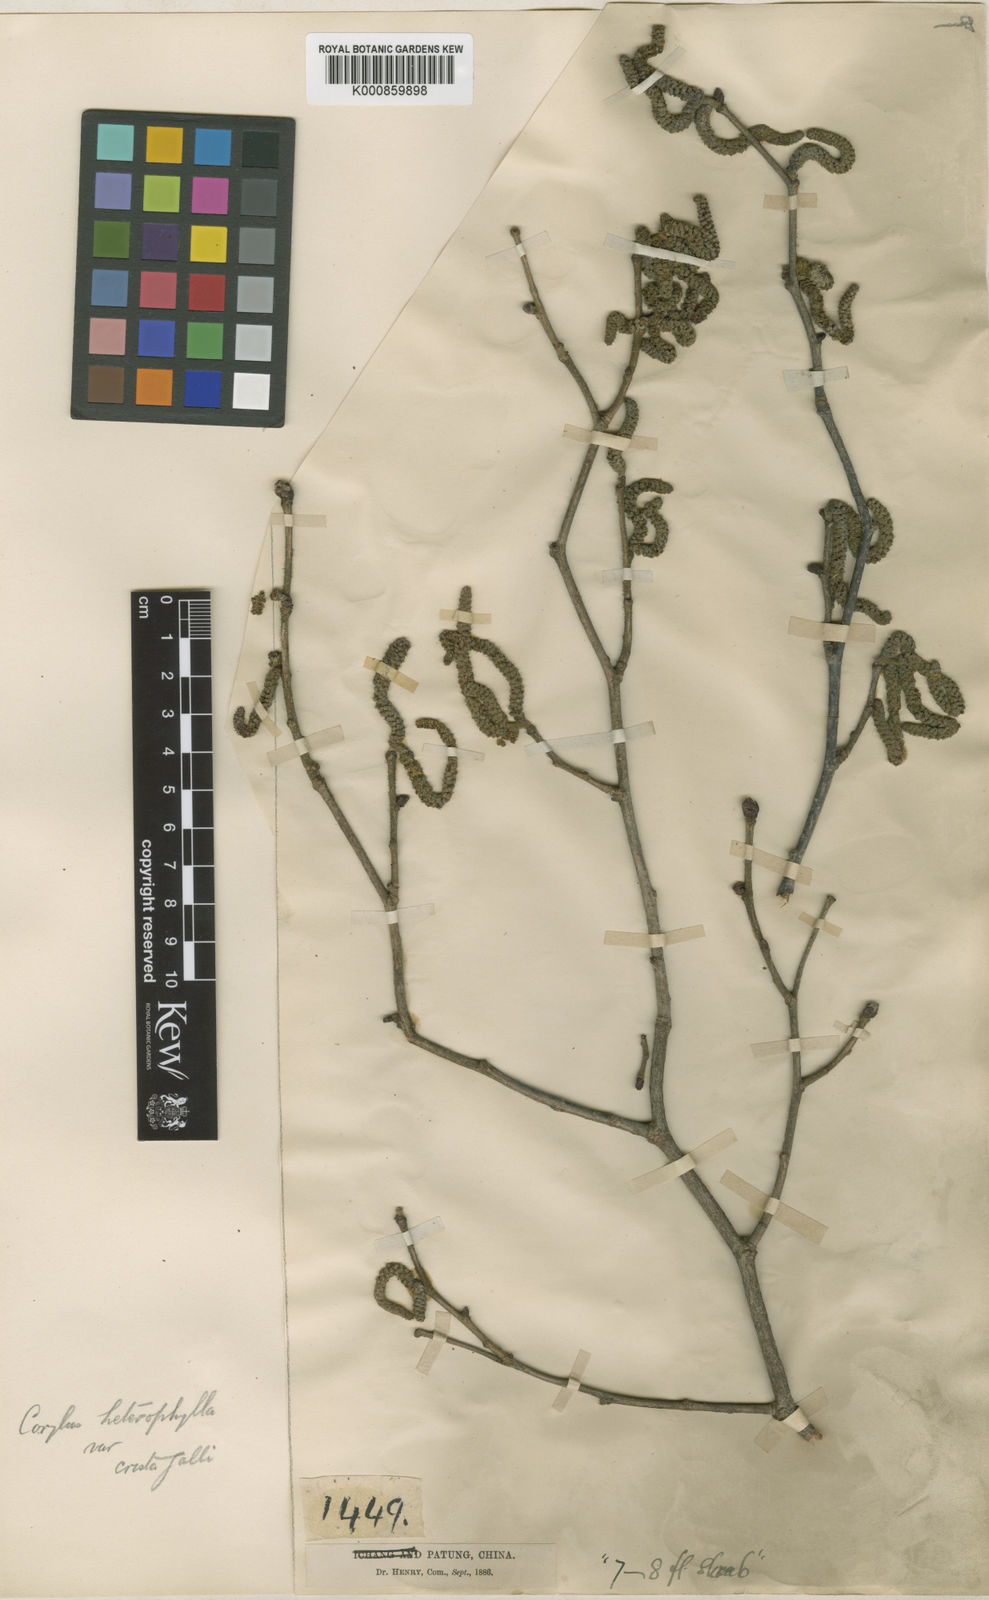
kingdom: Plantae
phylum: Tracheophyta
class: Magnoliopsida
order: Fagales
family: Betulaceae
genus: Corylus
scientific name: Corylus heterophylla
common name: Siberian hazelnut
